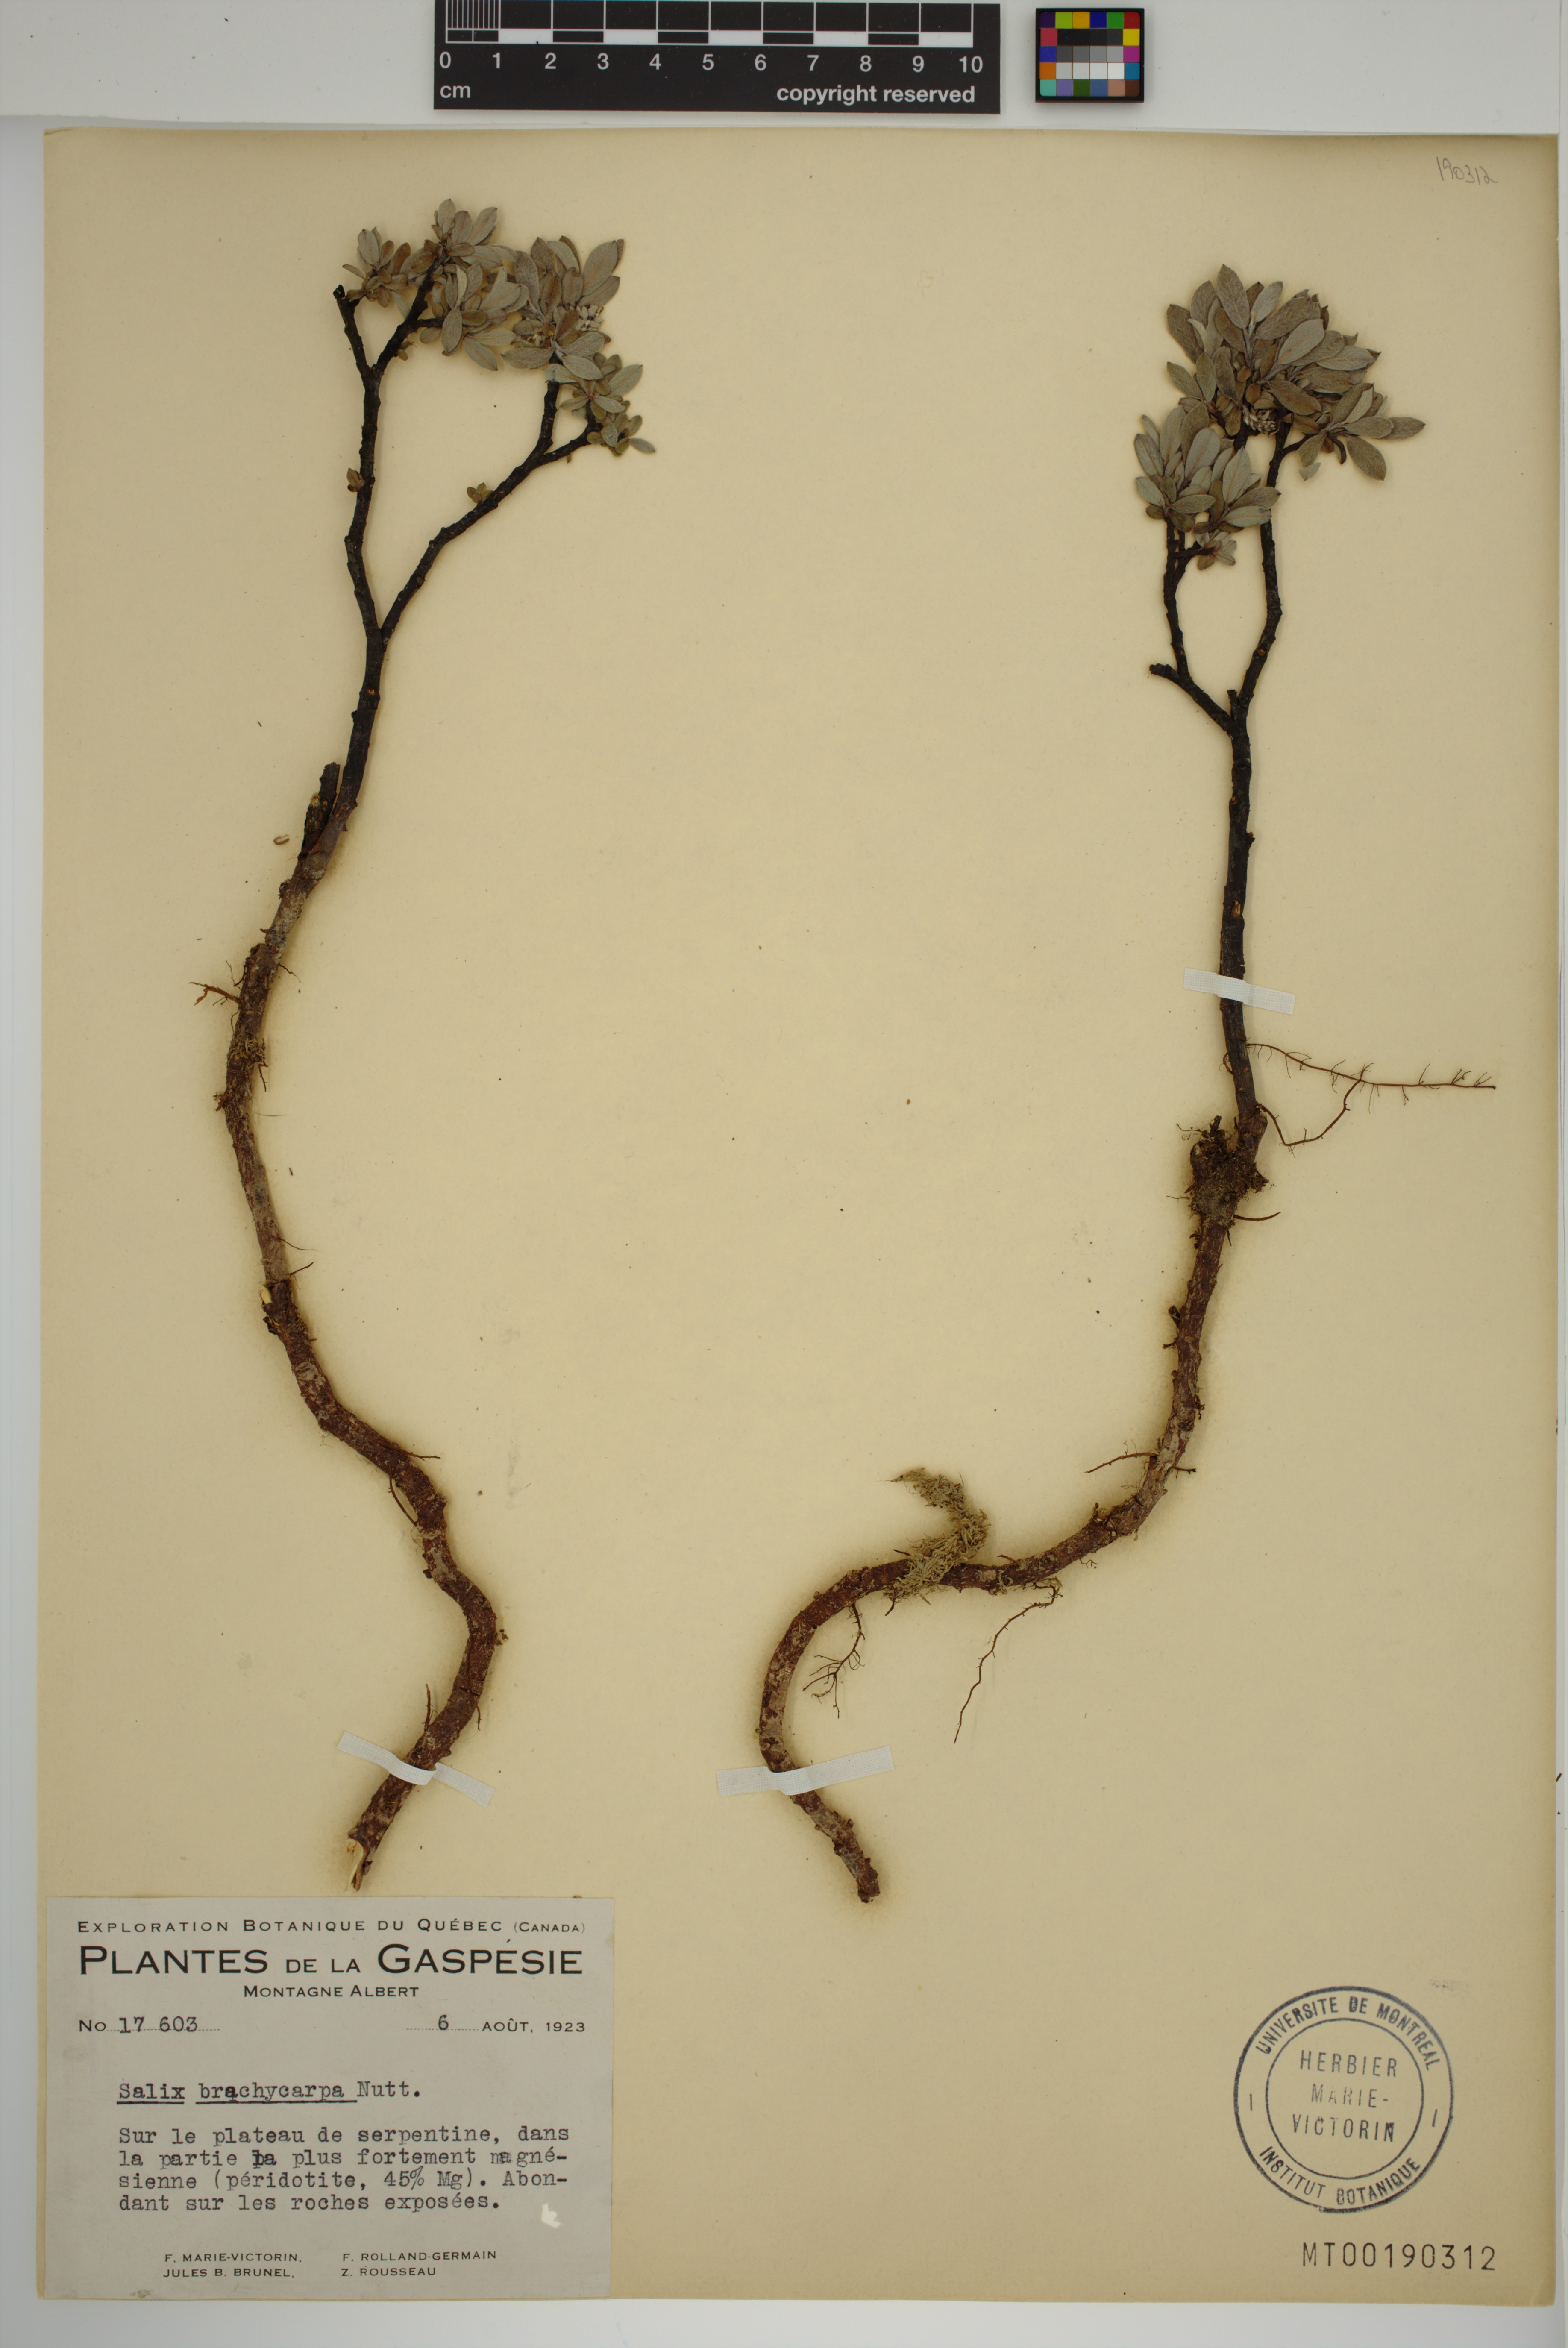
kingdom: Plantae
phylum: Tracheophyta
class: Magnoliopsida
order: Malpighiales
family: Salicaceae
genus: Salix
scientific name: Salix brachycarpa
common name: Barren-ground willow
